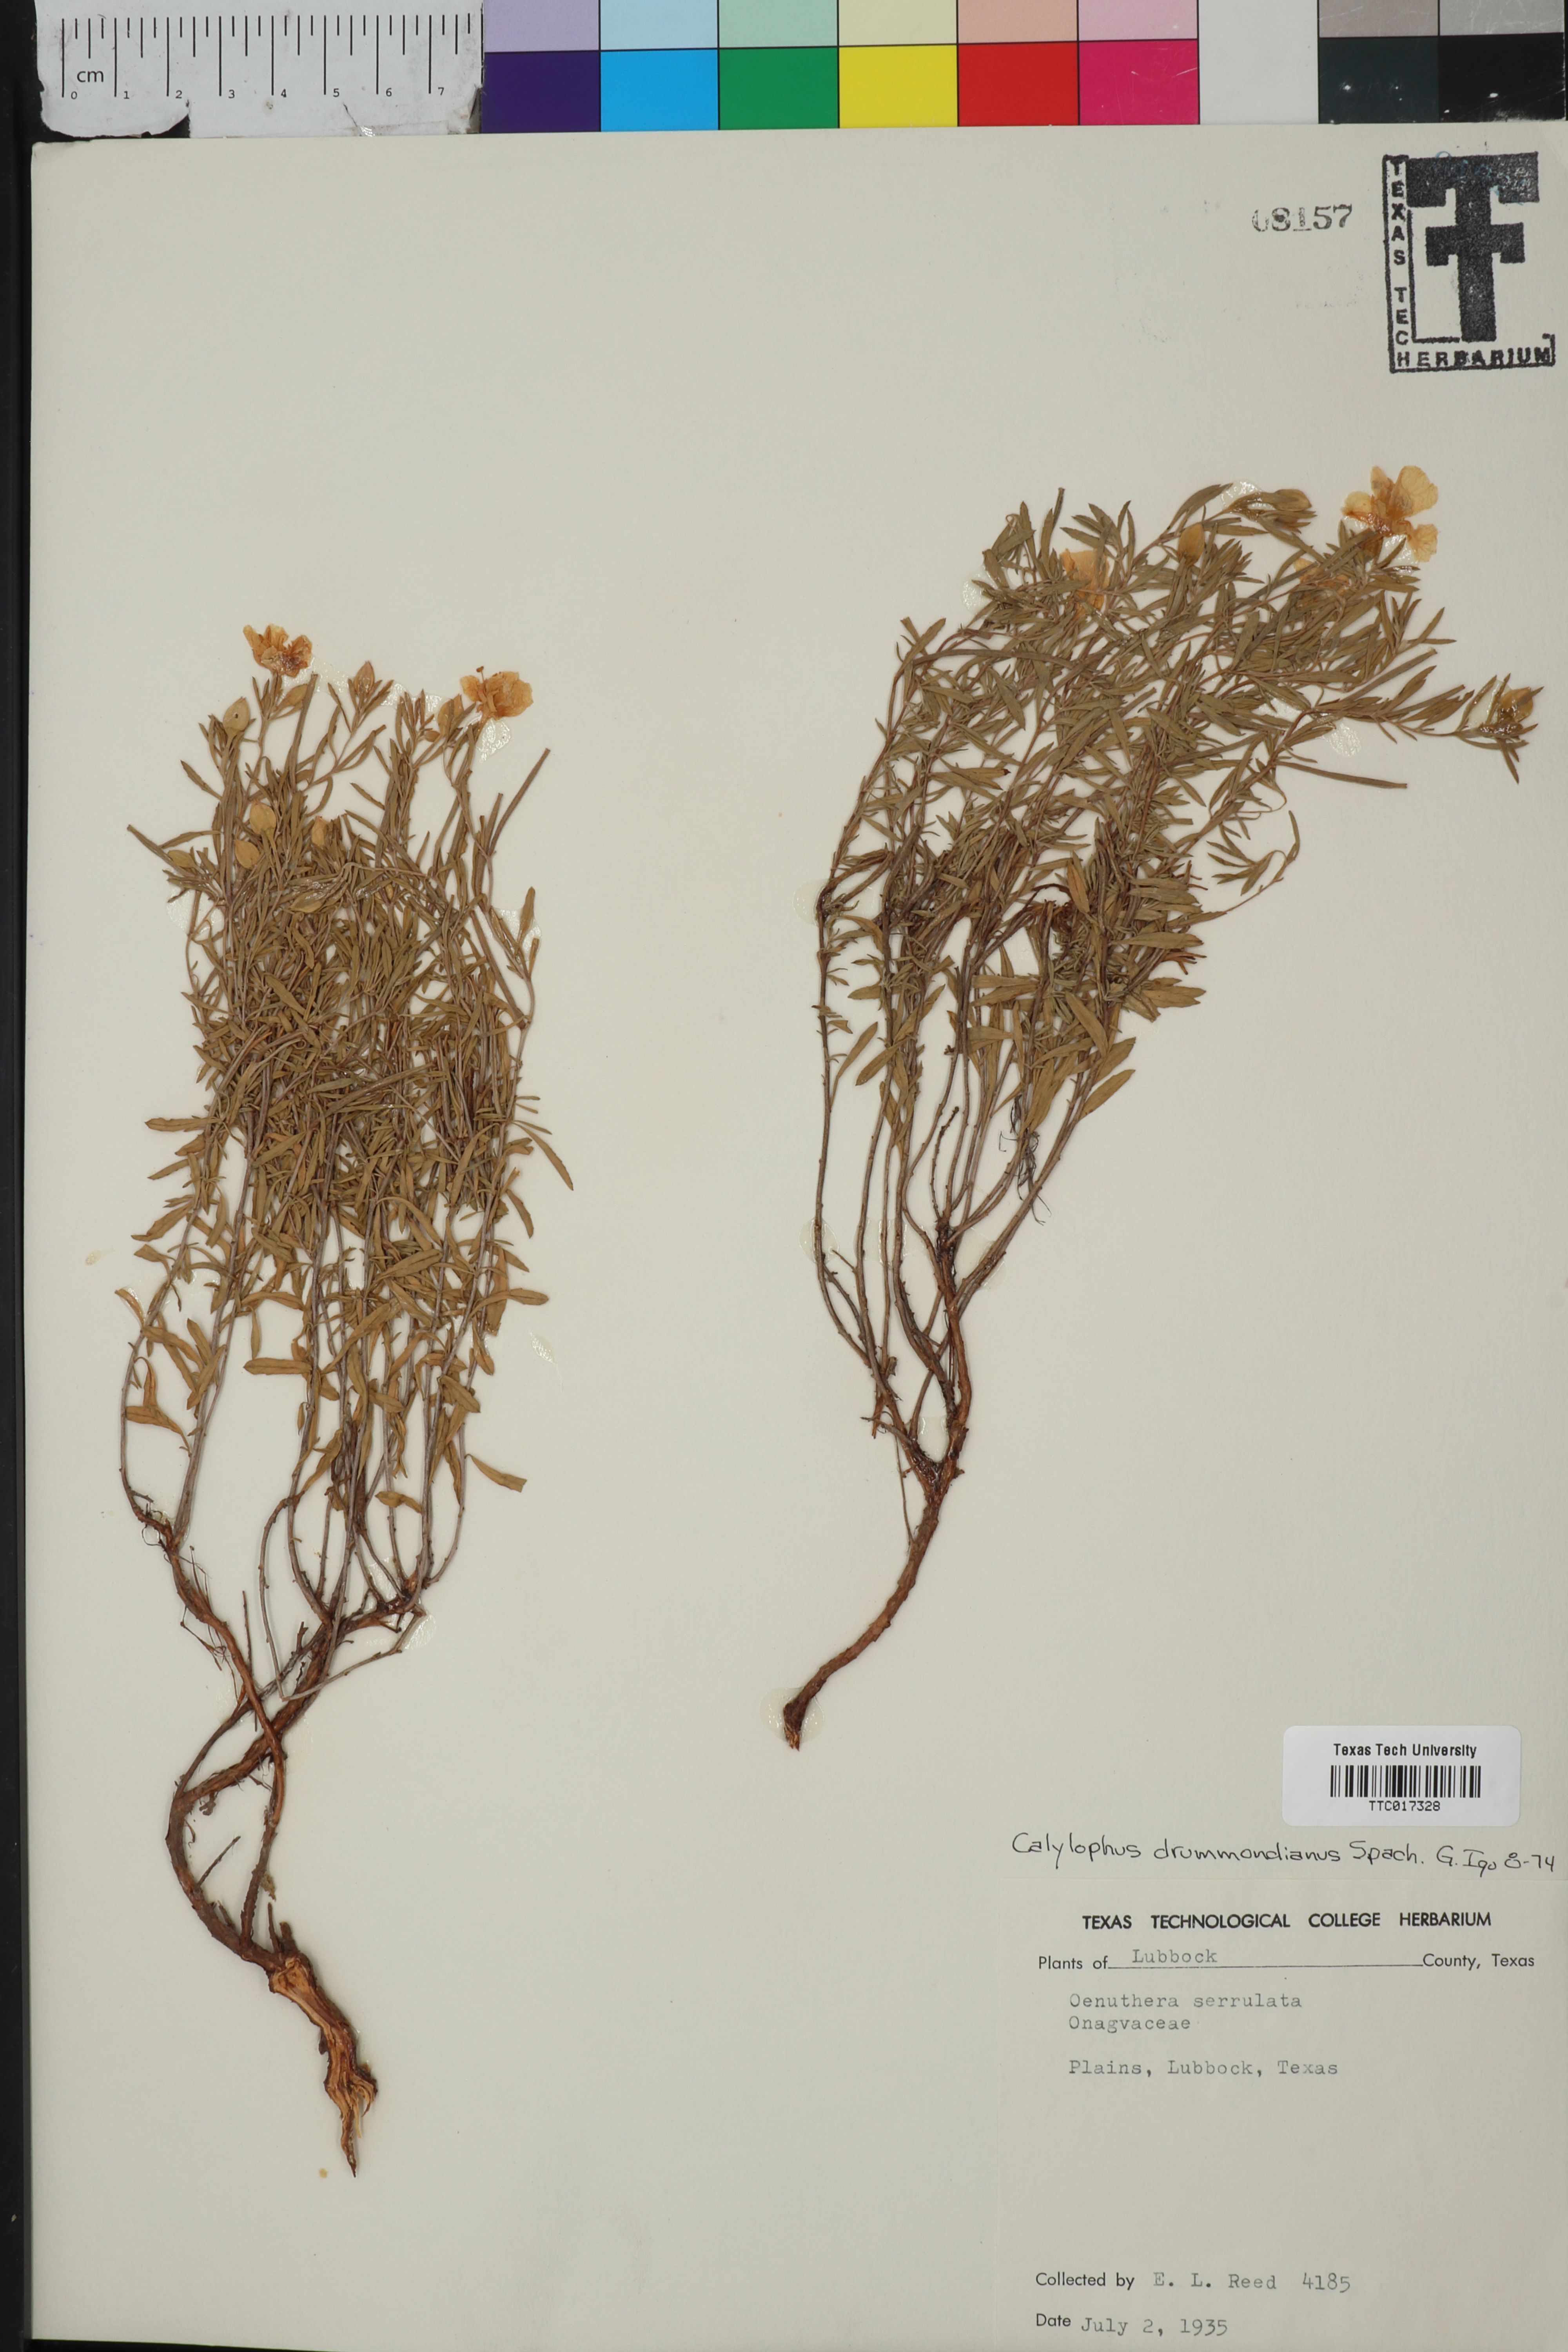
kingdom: Plantae
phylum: Tracheophyta
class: Magnoliopsida
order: Myrtales
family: Onagraceae
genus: Oenothera
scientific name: Oenothera serrulata
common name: Half-shrub calylophus
